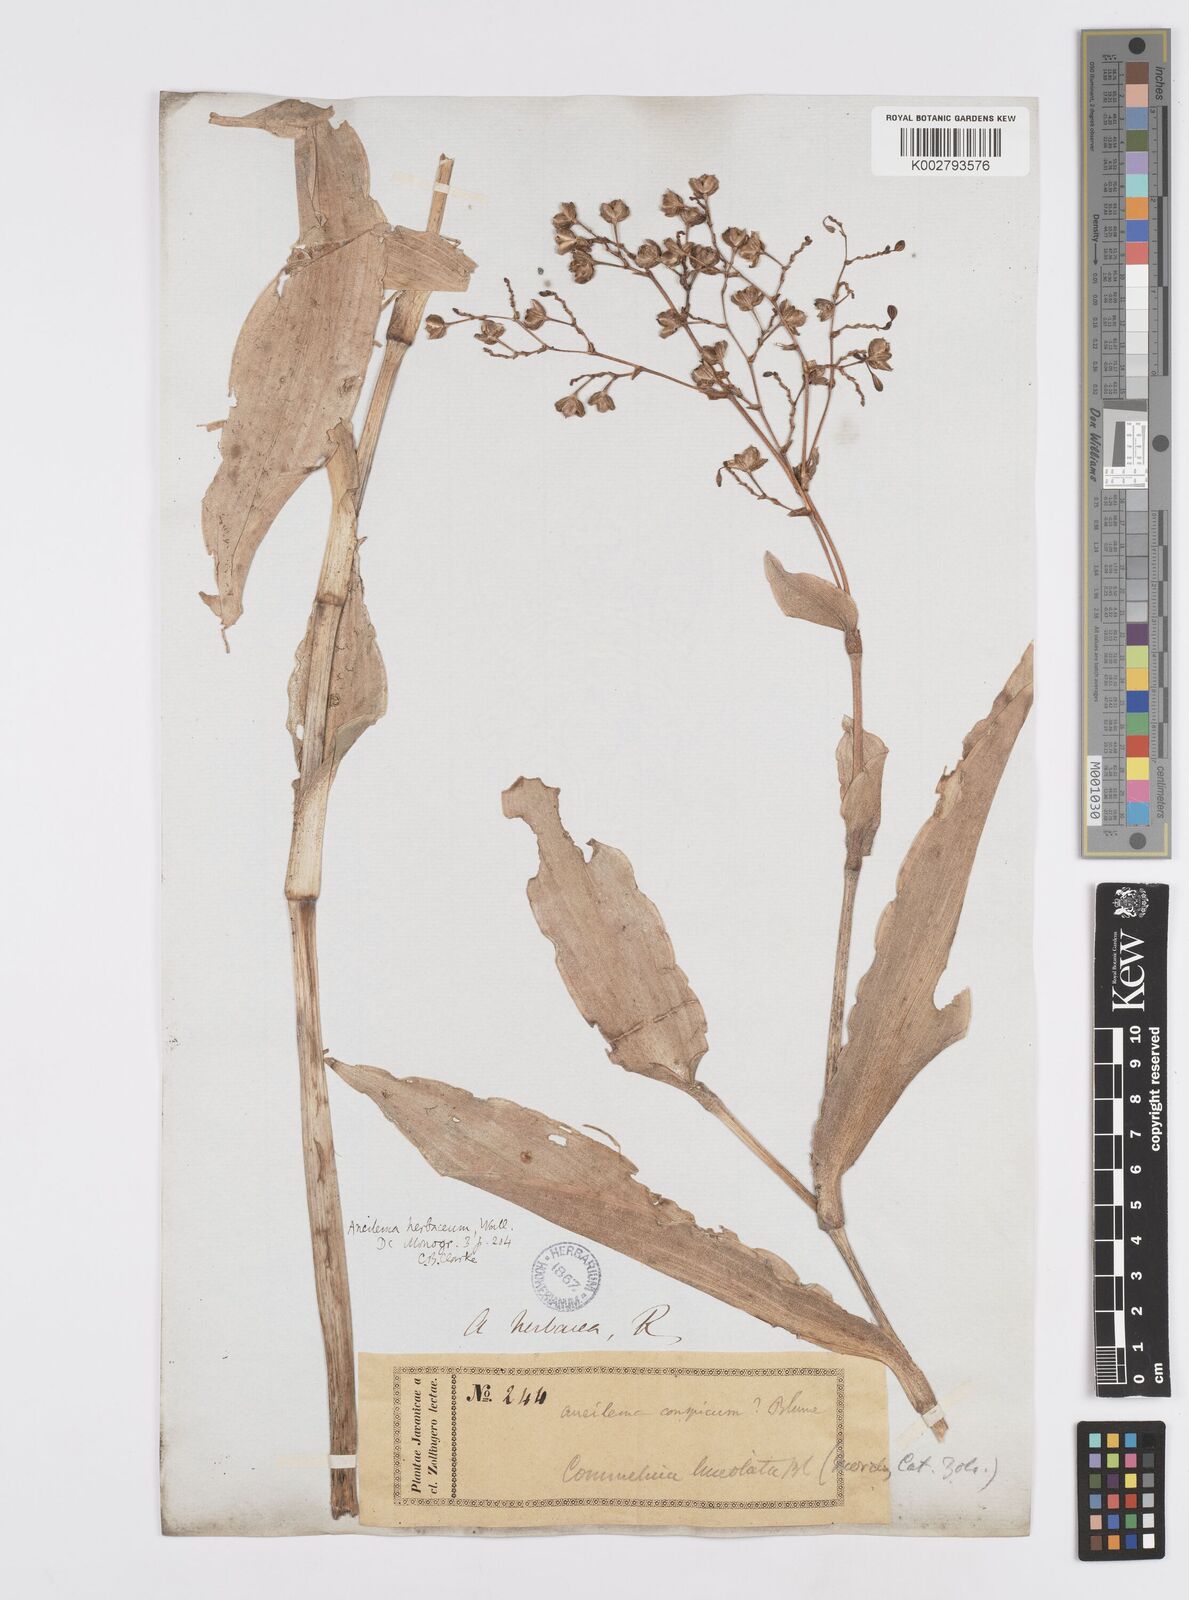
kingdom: Plantae
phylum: Tracheophyta
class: Liliopsida
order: Commelinales
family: Commelinaceae
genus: Murdannia
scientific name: Murdannia
